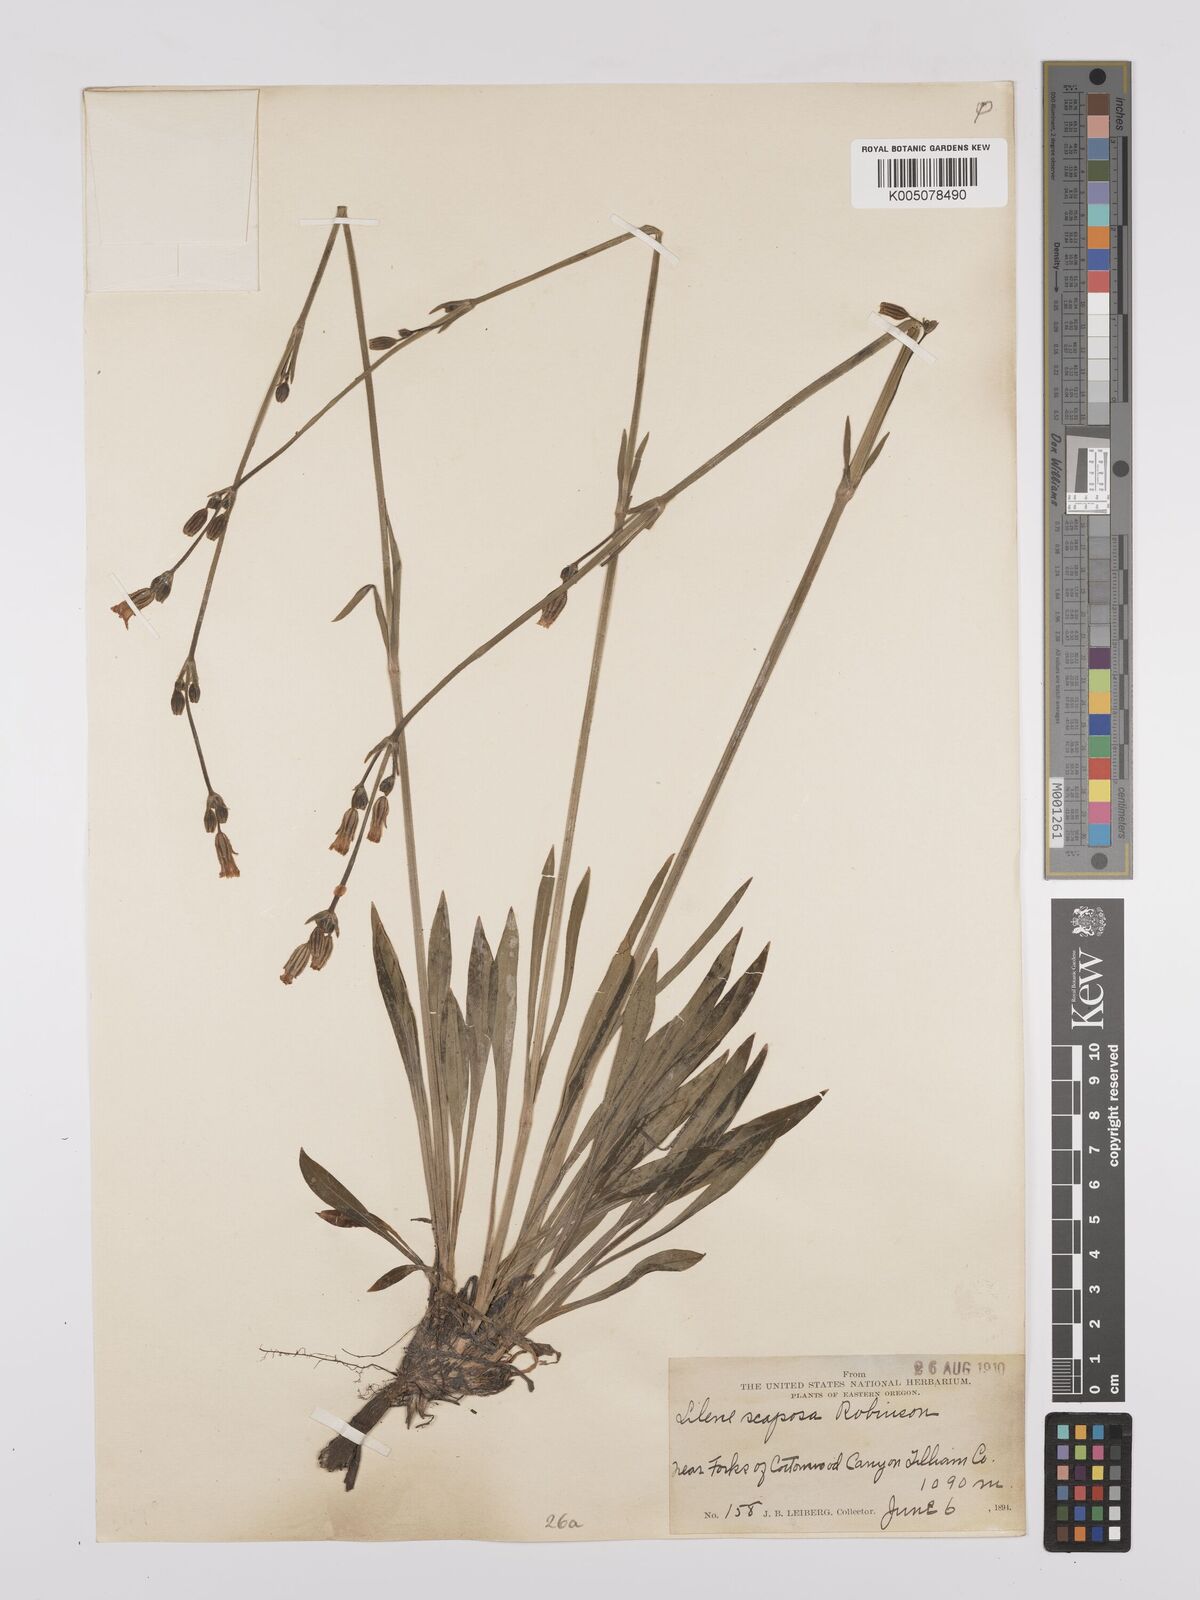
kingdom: Plantae
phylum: Tracheophyta
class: Magnoliopsida
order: Caryophyllales
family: Caryophyllaceae
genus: Silene
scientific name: Silene
